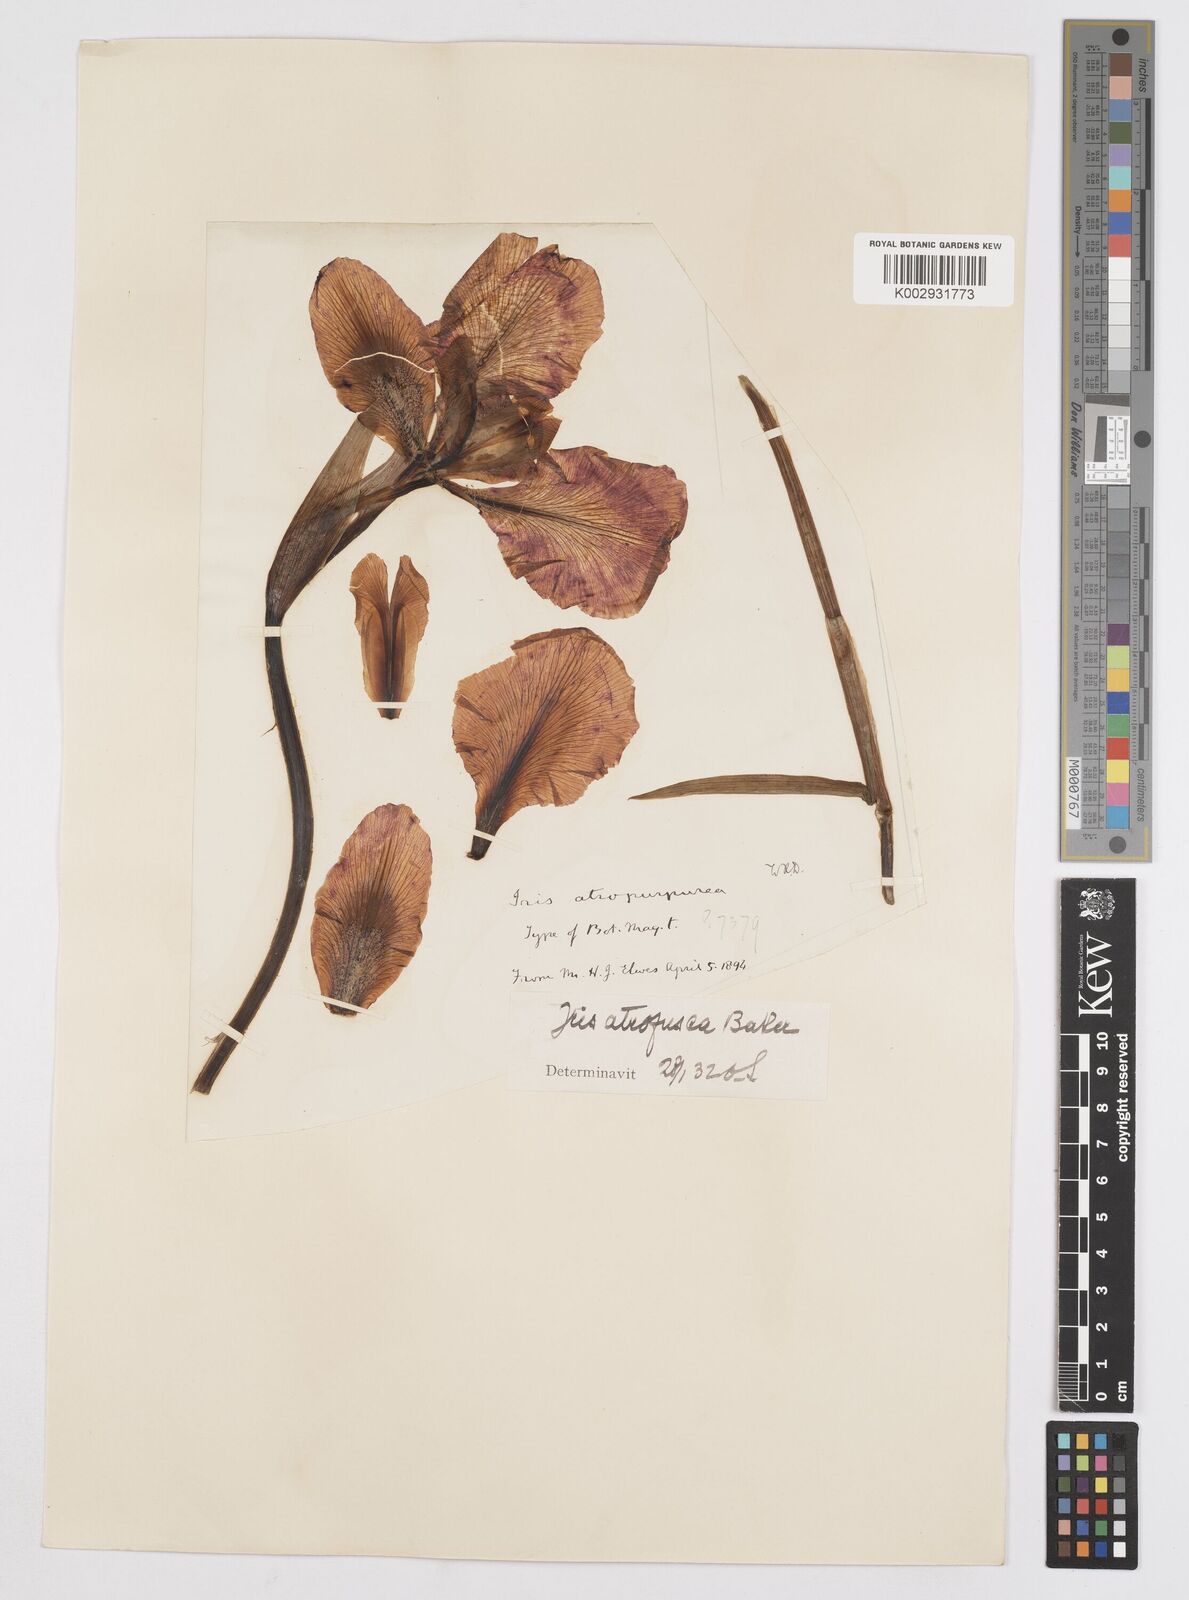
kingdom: Plantae
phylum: Tracheophyta
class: Liliopsida
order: Asparagales
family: Iridaceae
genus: Iris
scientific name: Iris atropurpurea
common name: Coastal iris
